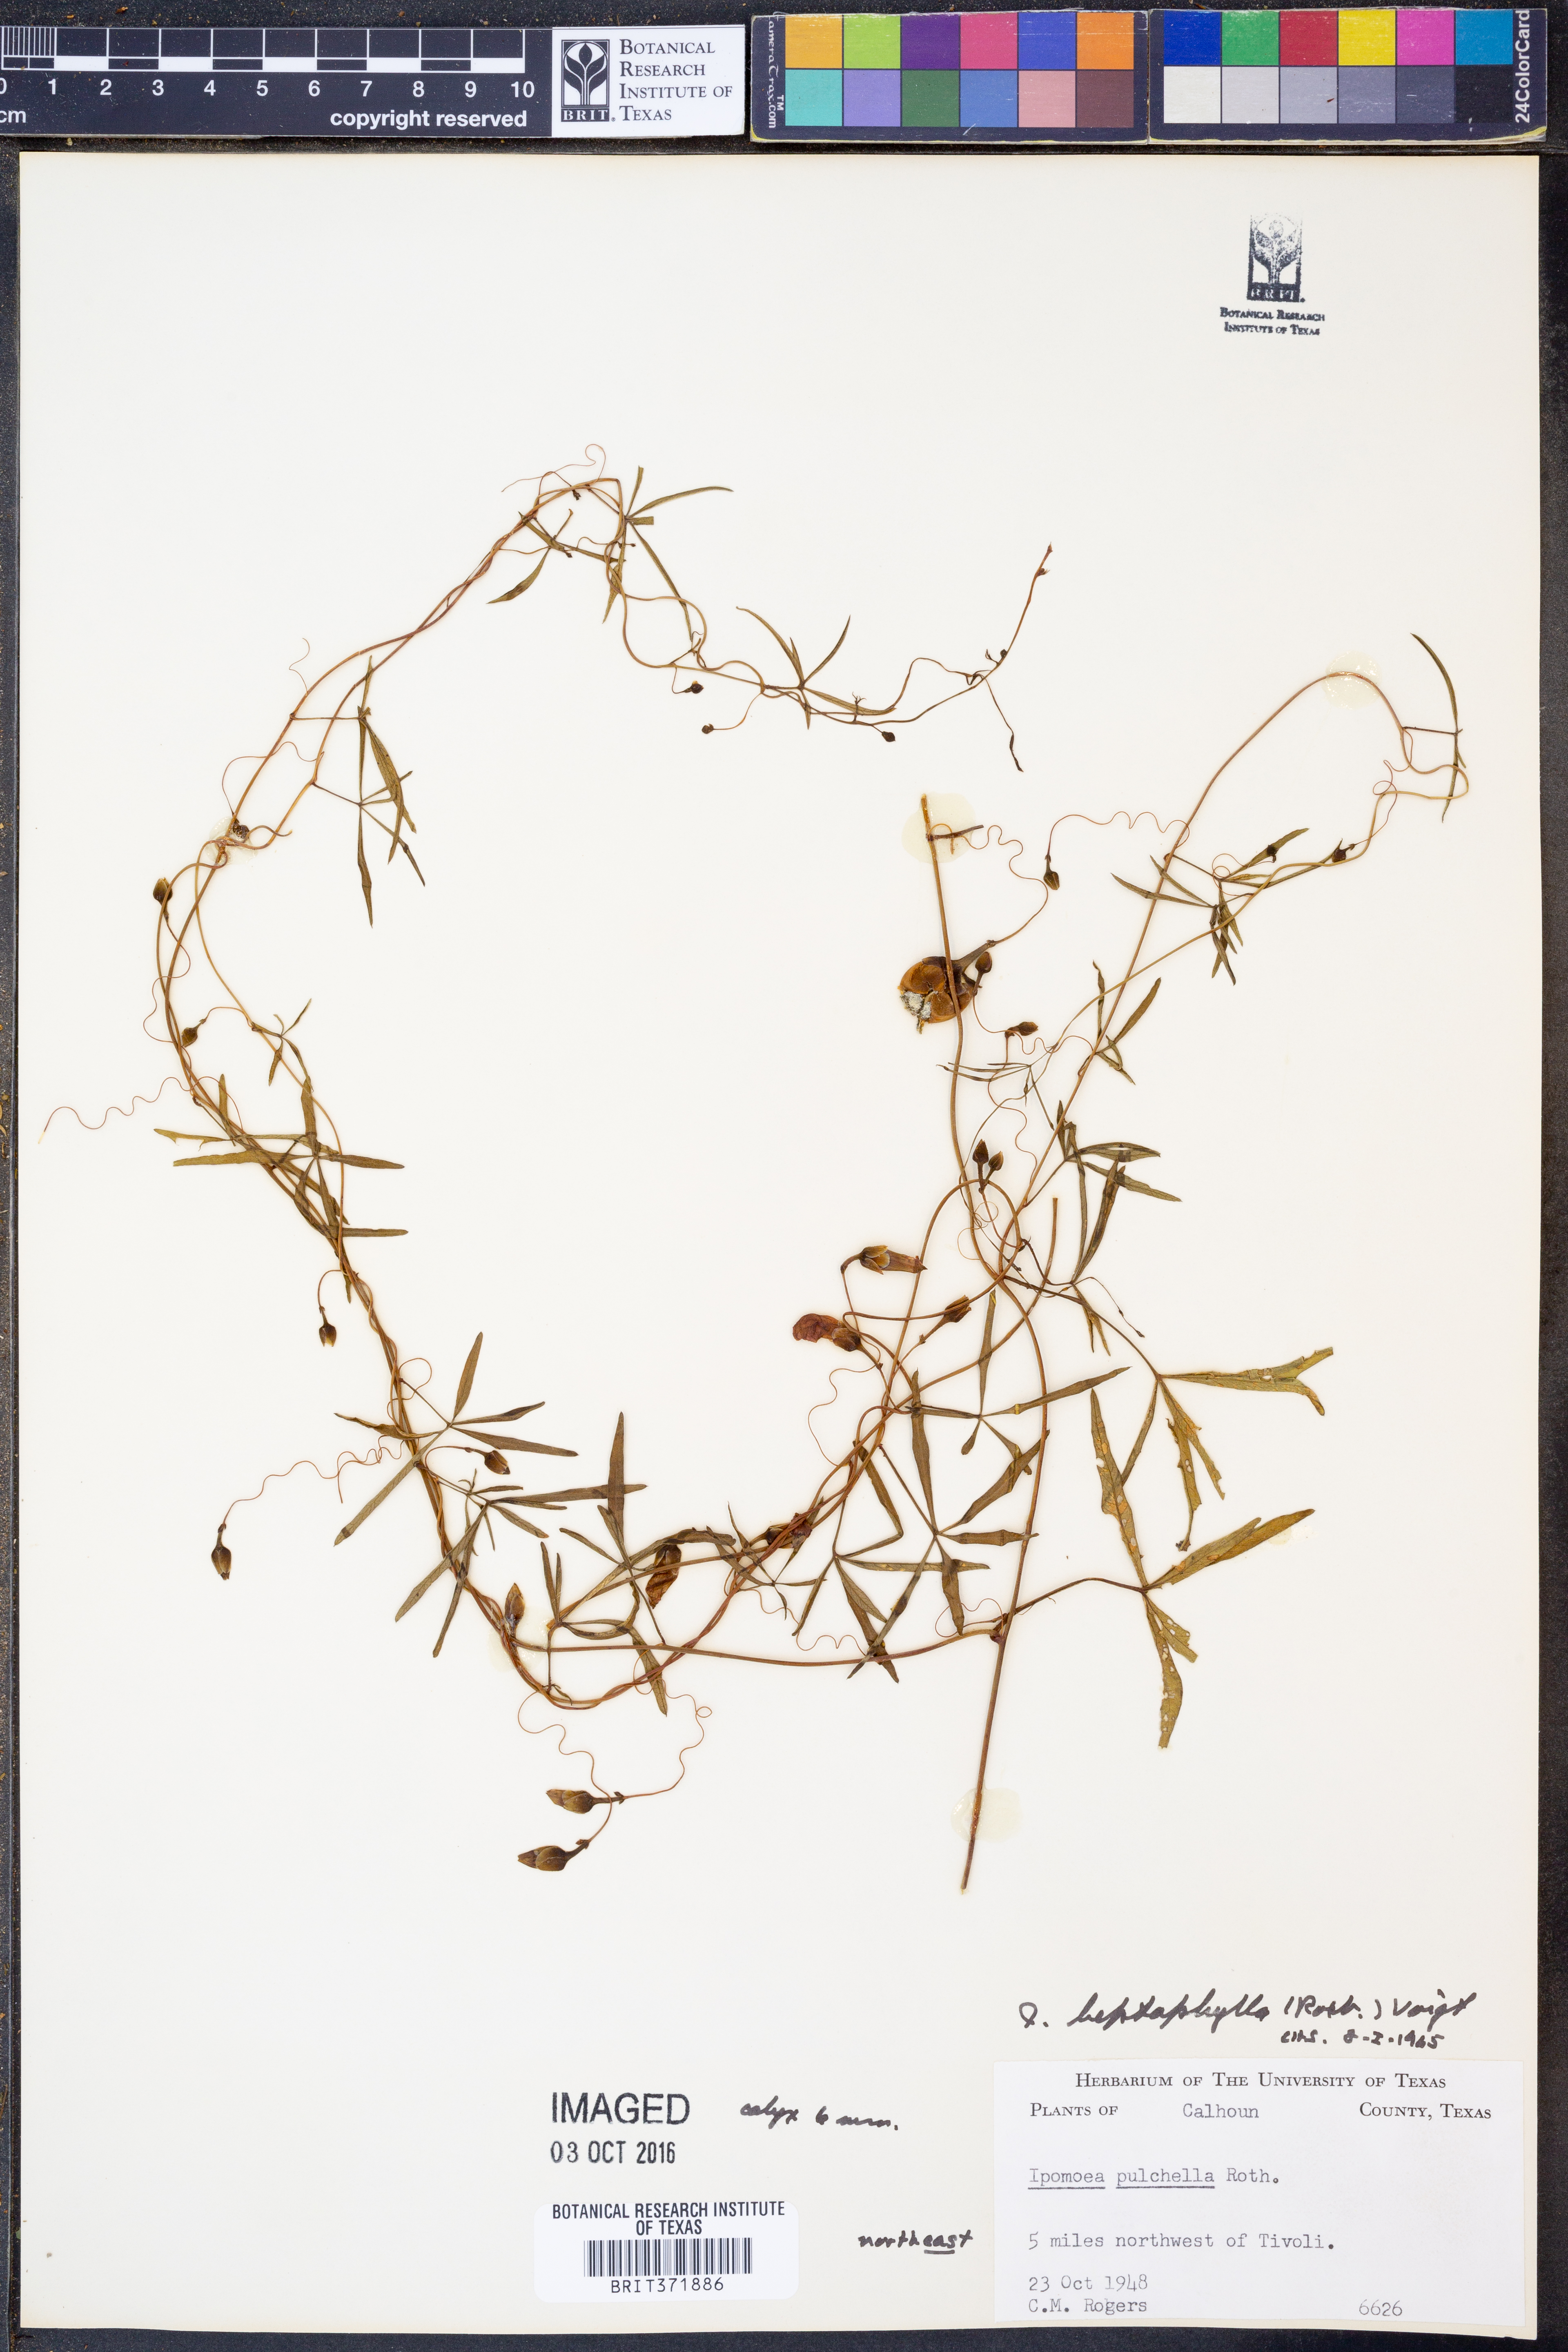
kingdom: Plantae
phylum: Tracheophyta
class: Magnoliopsida
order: Solanales
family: Convolvulaceae
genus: Ipomoea
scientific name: Ipomoea leptophylla
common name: Bush moonflower
